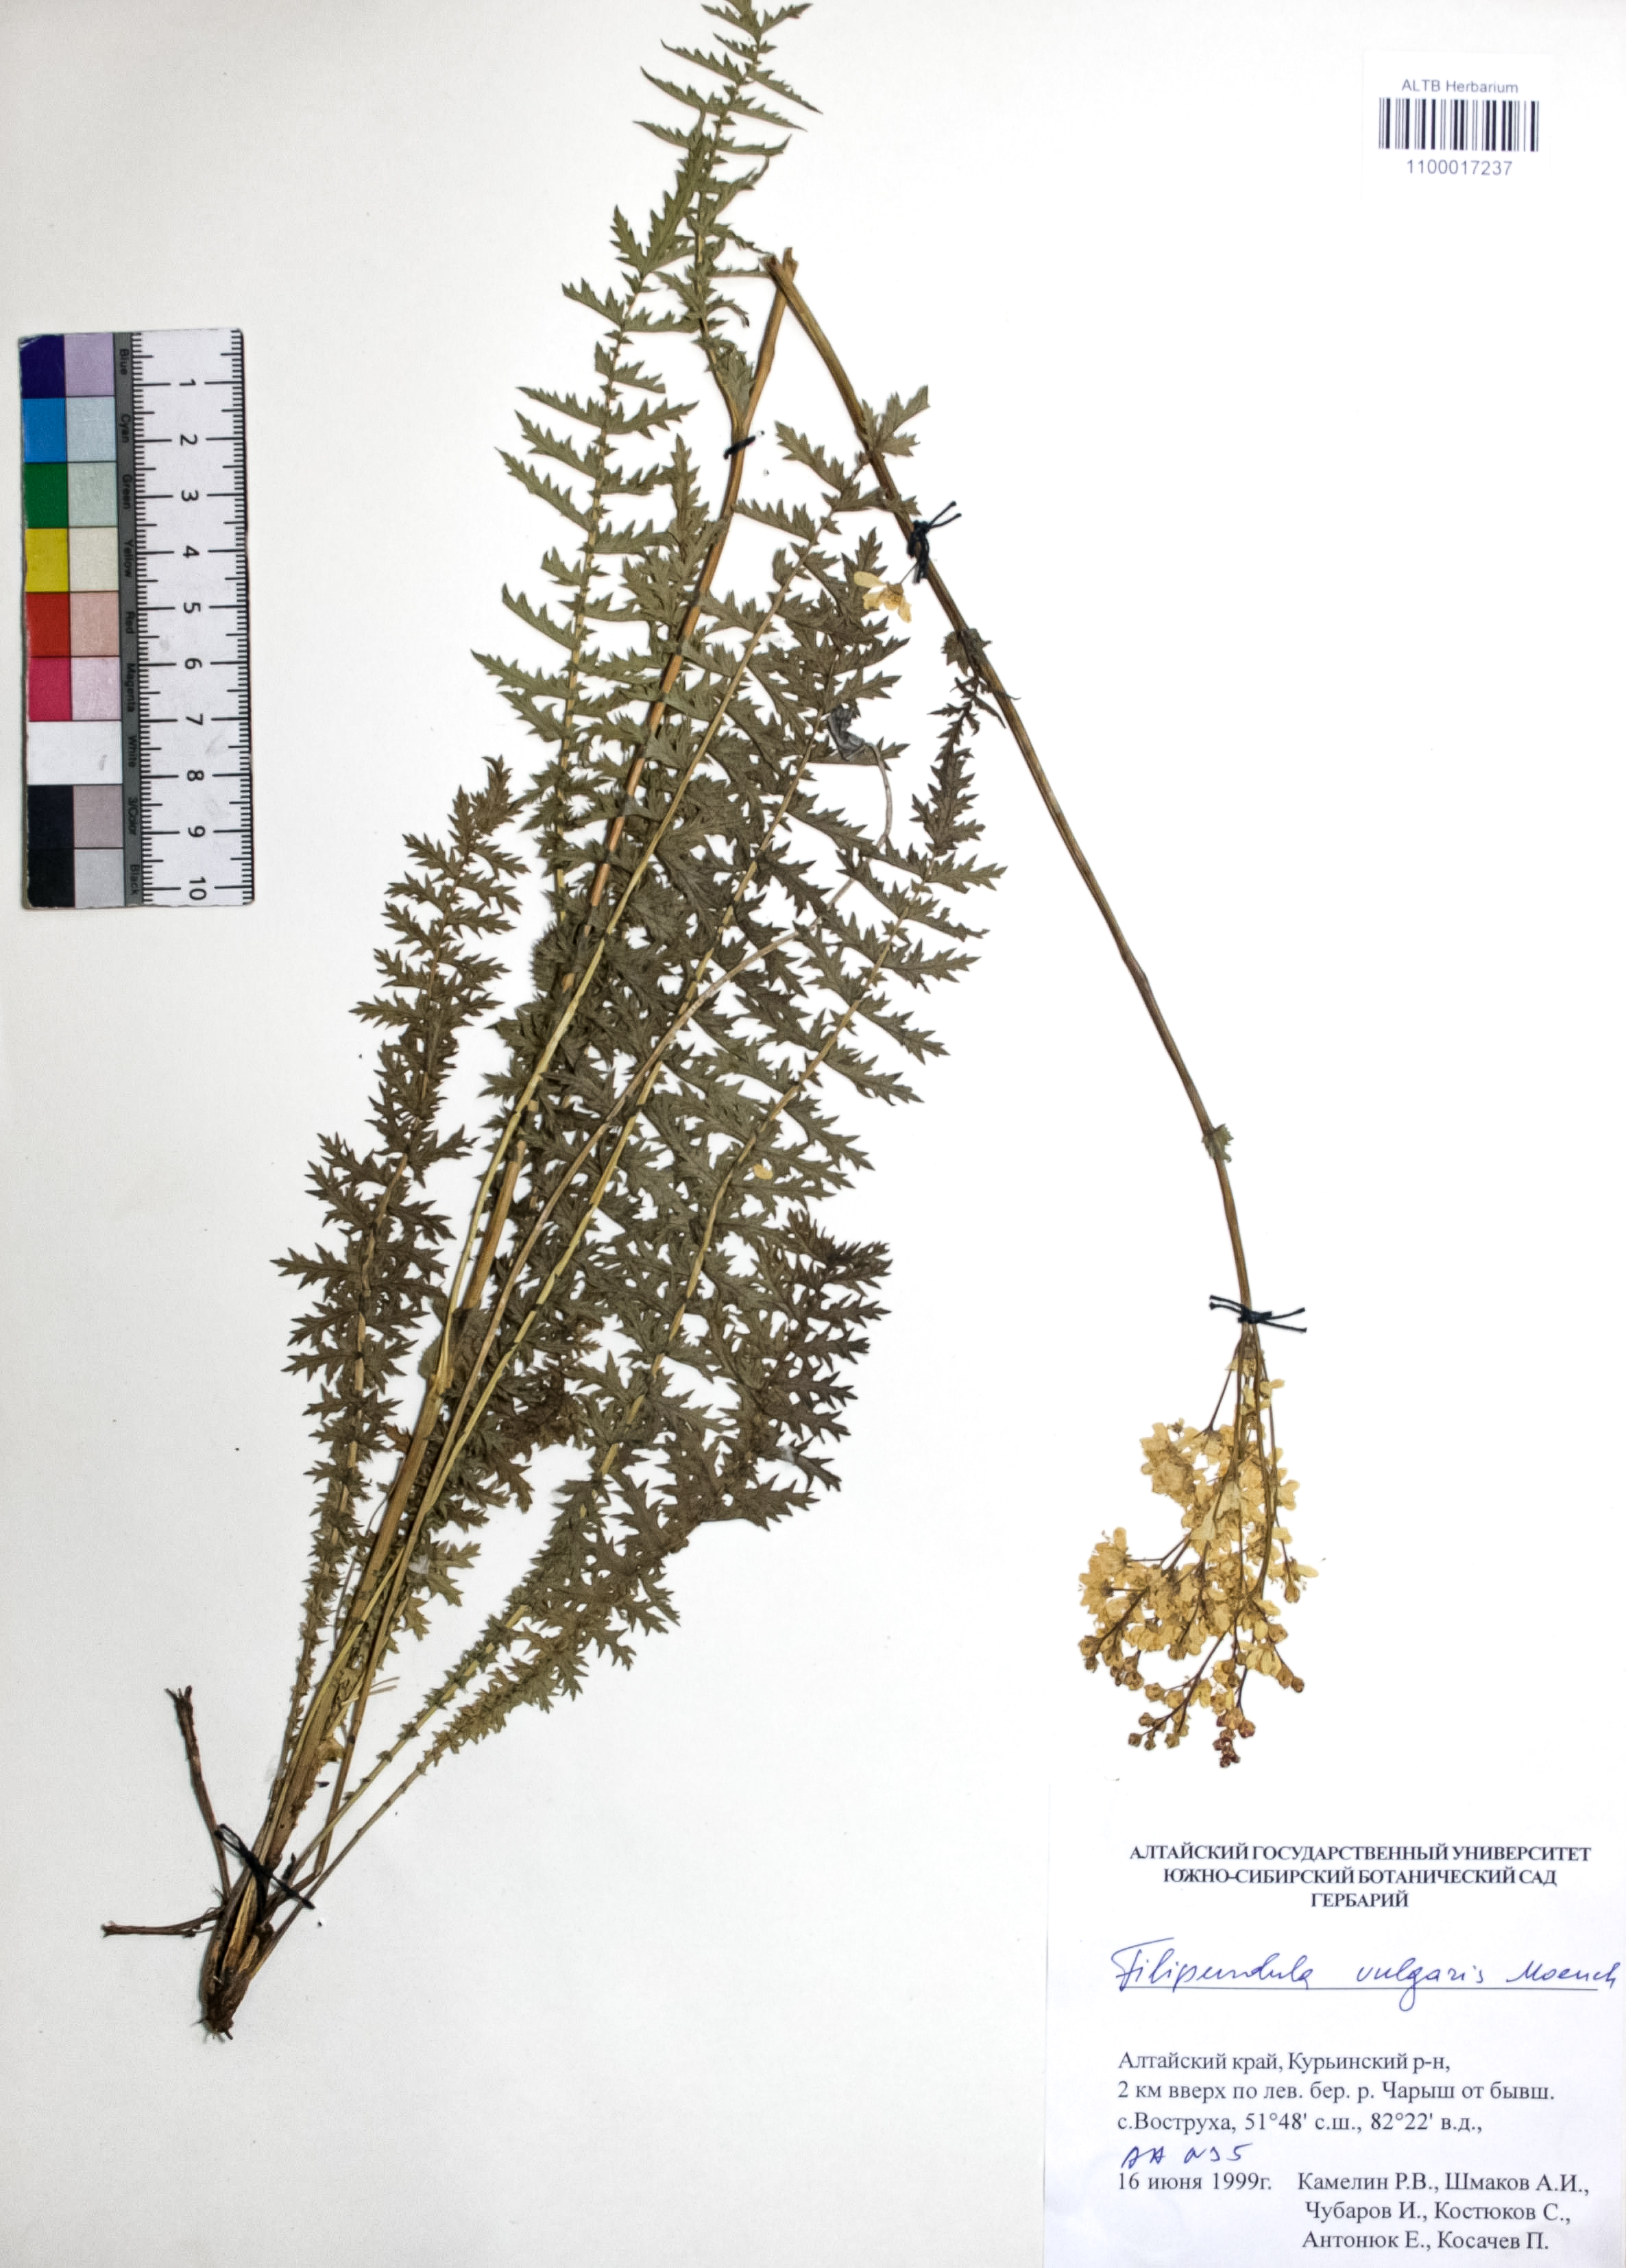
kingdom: Plantae
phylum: Tracheophyta
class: Magnoliopsida
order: Rosales
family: Rosaceae
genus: Filipendula
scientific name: Filipendula vulgaris
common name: Dropwort
